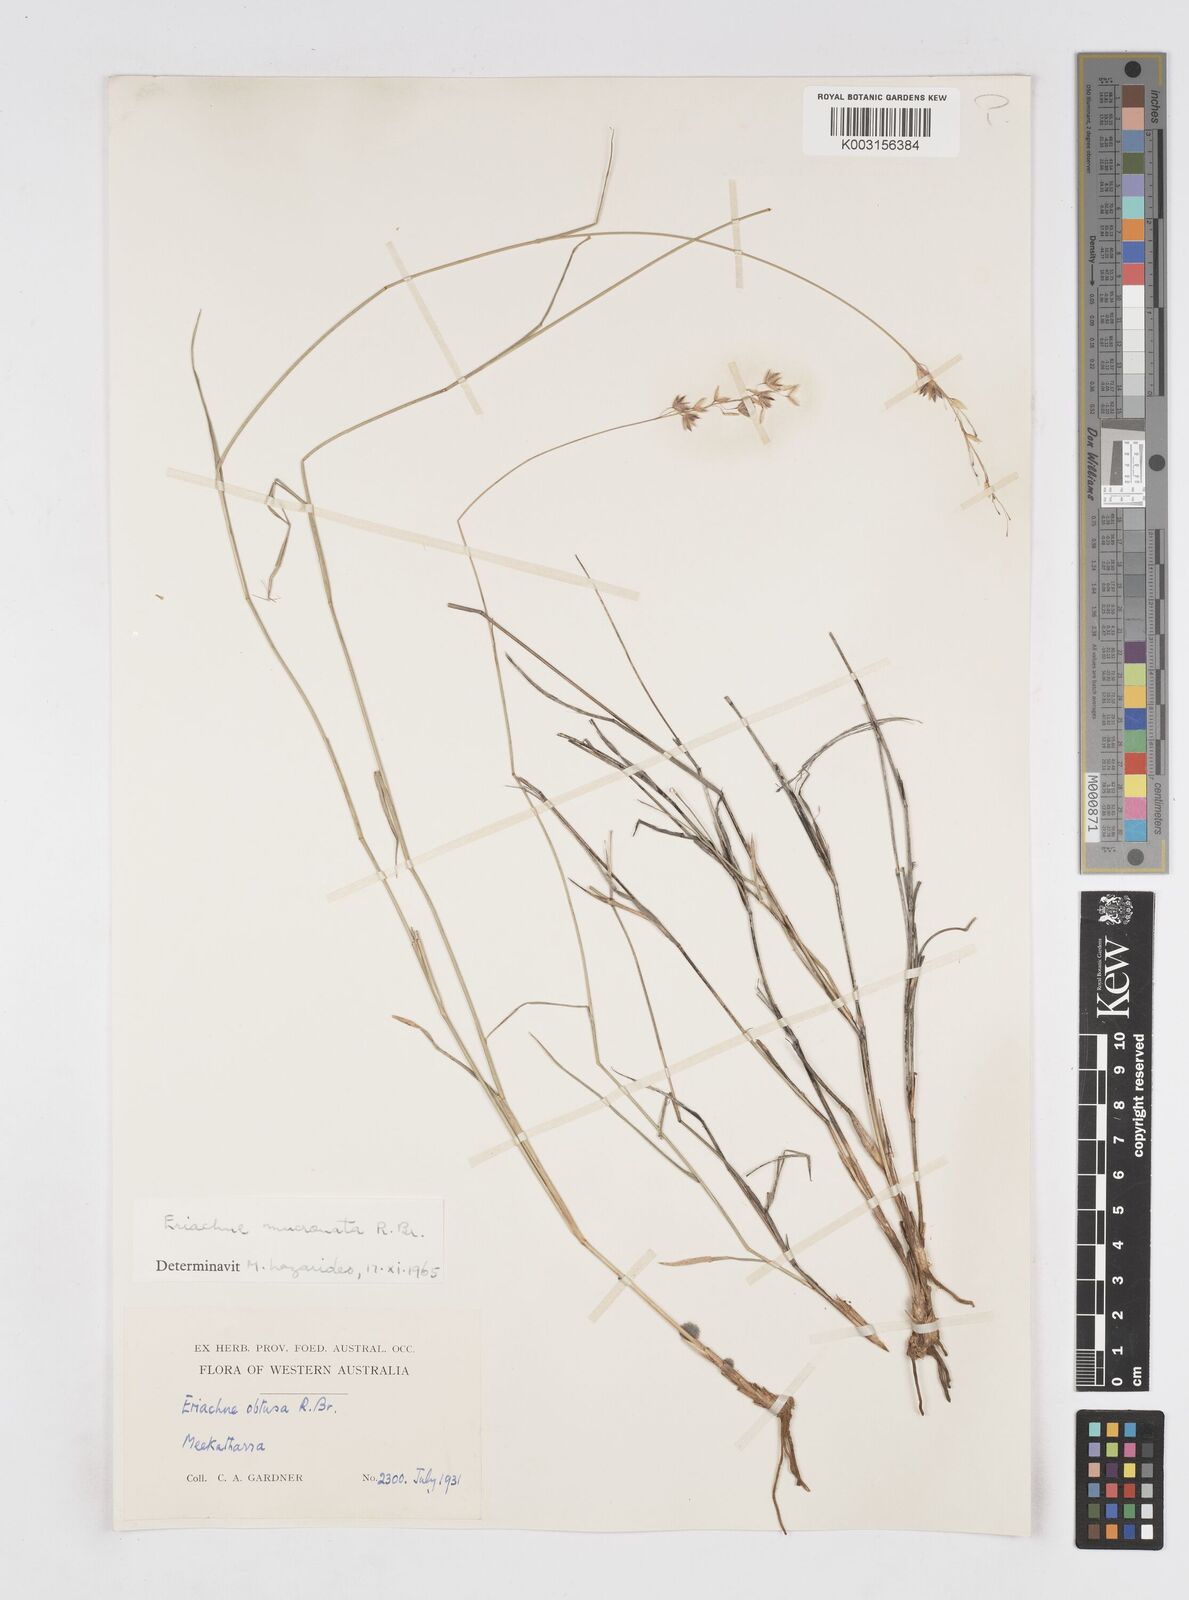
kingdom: Plantae
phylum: Tracheophyta
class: Liliopsida
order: Poales
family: Poaceae
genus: Eriachne
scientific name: Eriachne mucronata
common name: Mountain wanderrie grass
